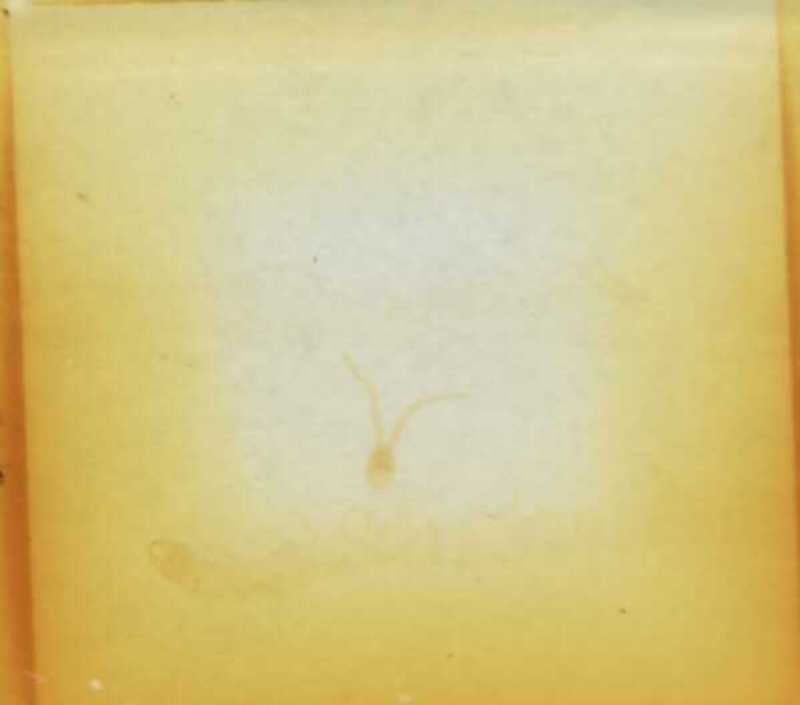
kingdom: Animalia
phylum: Arthropoda
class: Chilopoda
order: Geophilomorpha
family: Schendylidae
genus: Schendyla
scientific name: Schendyla montana
